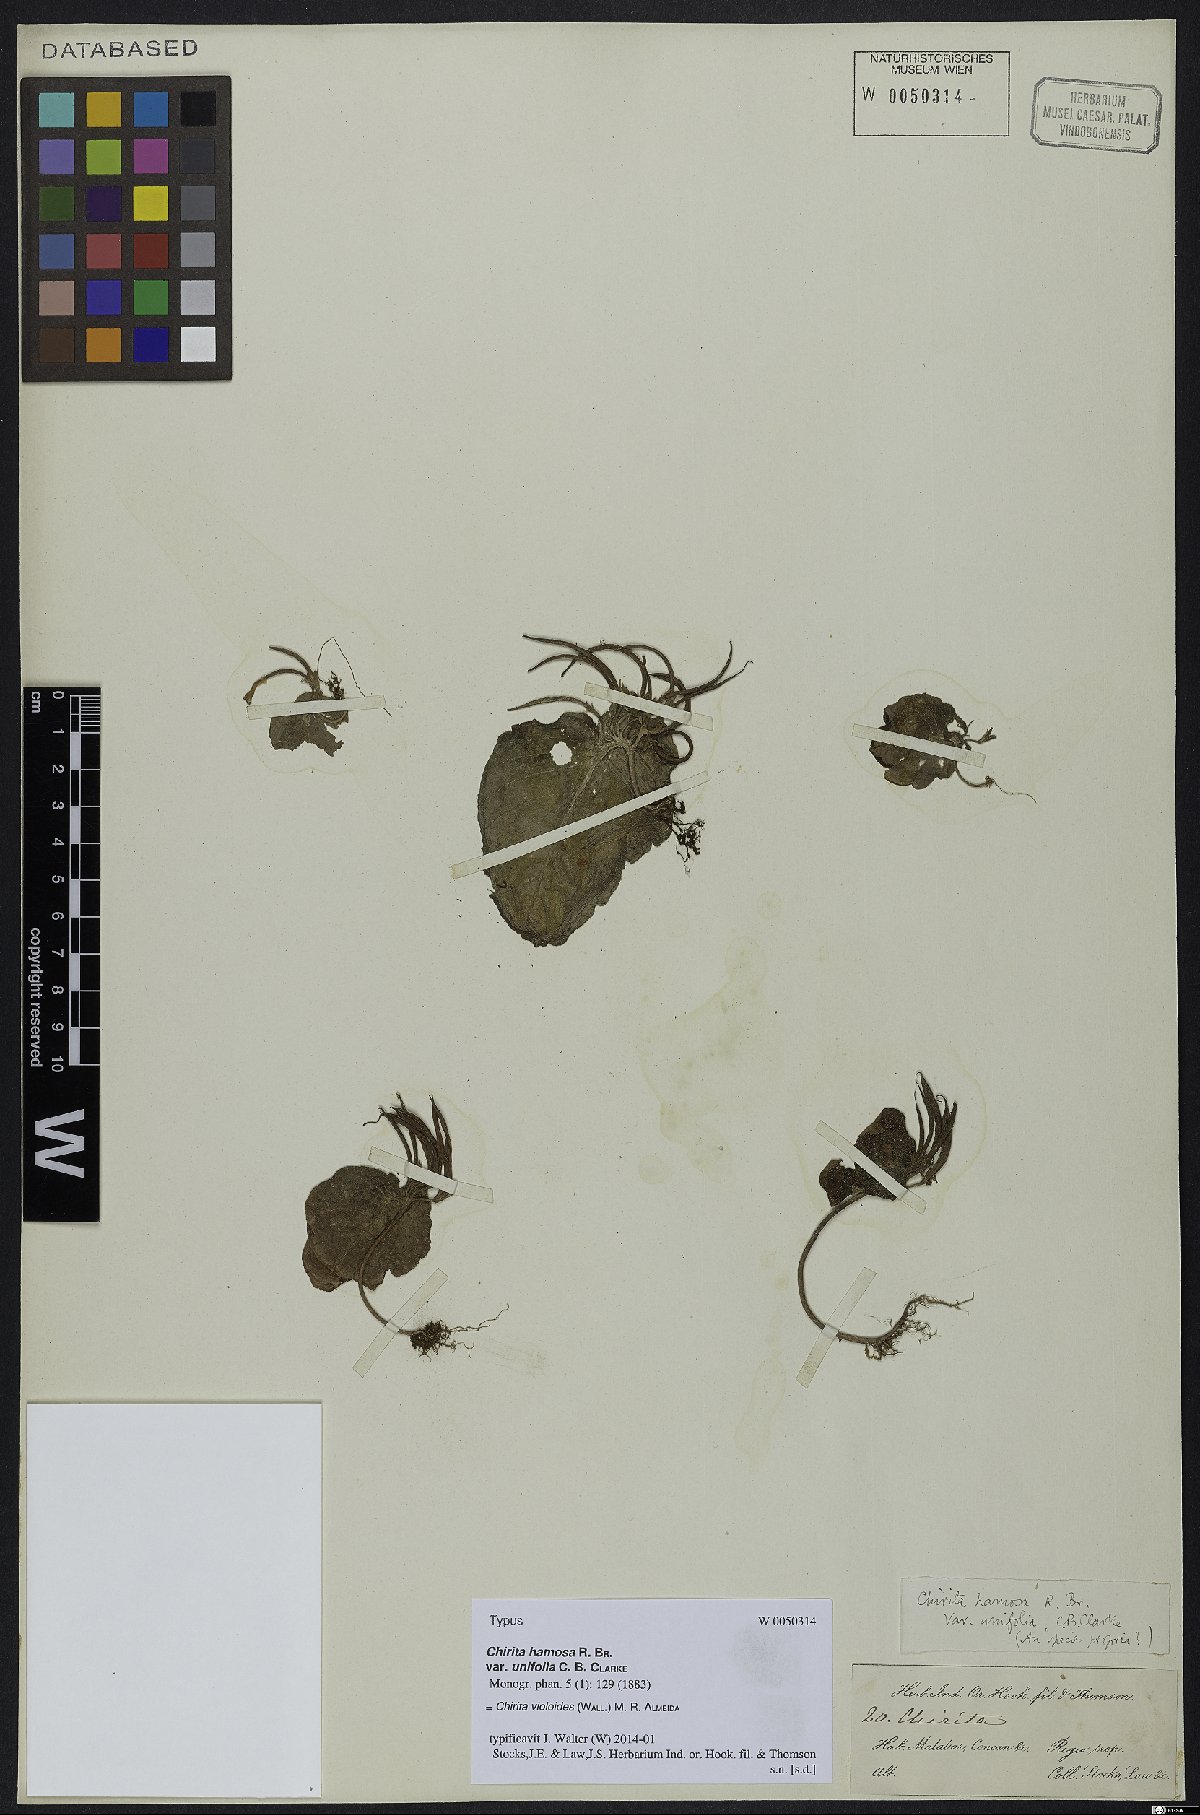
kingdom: Plantae
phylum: Tracheophyta
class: Magnoliopsida
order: Lamiales
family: Gesneriaceae
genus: Platystemma
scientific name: Platystemma violoides
